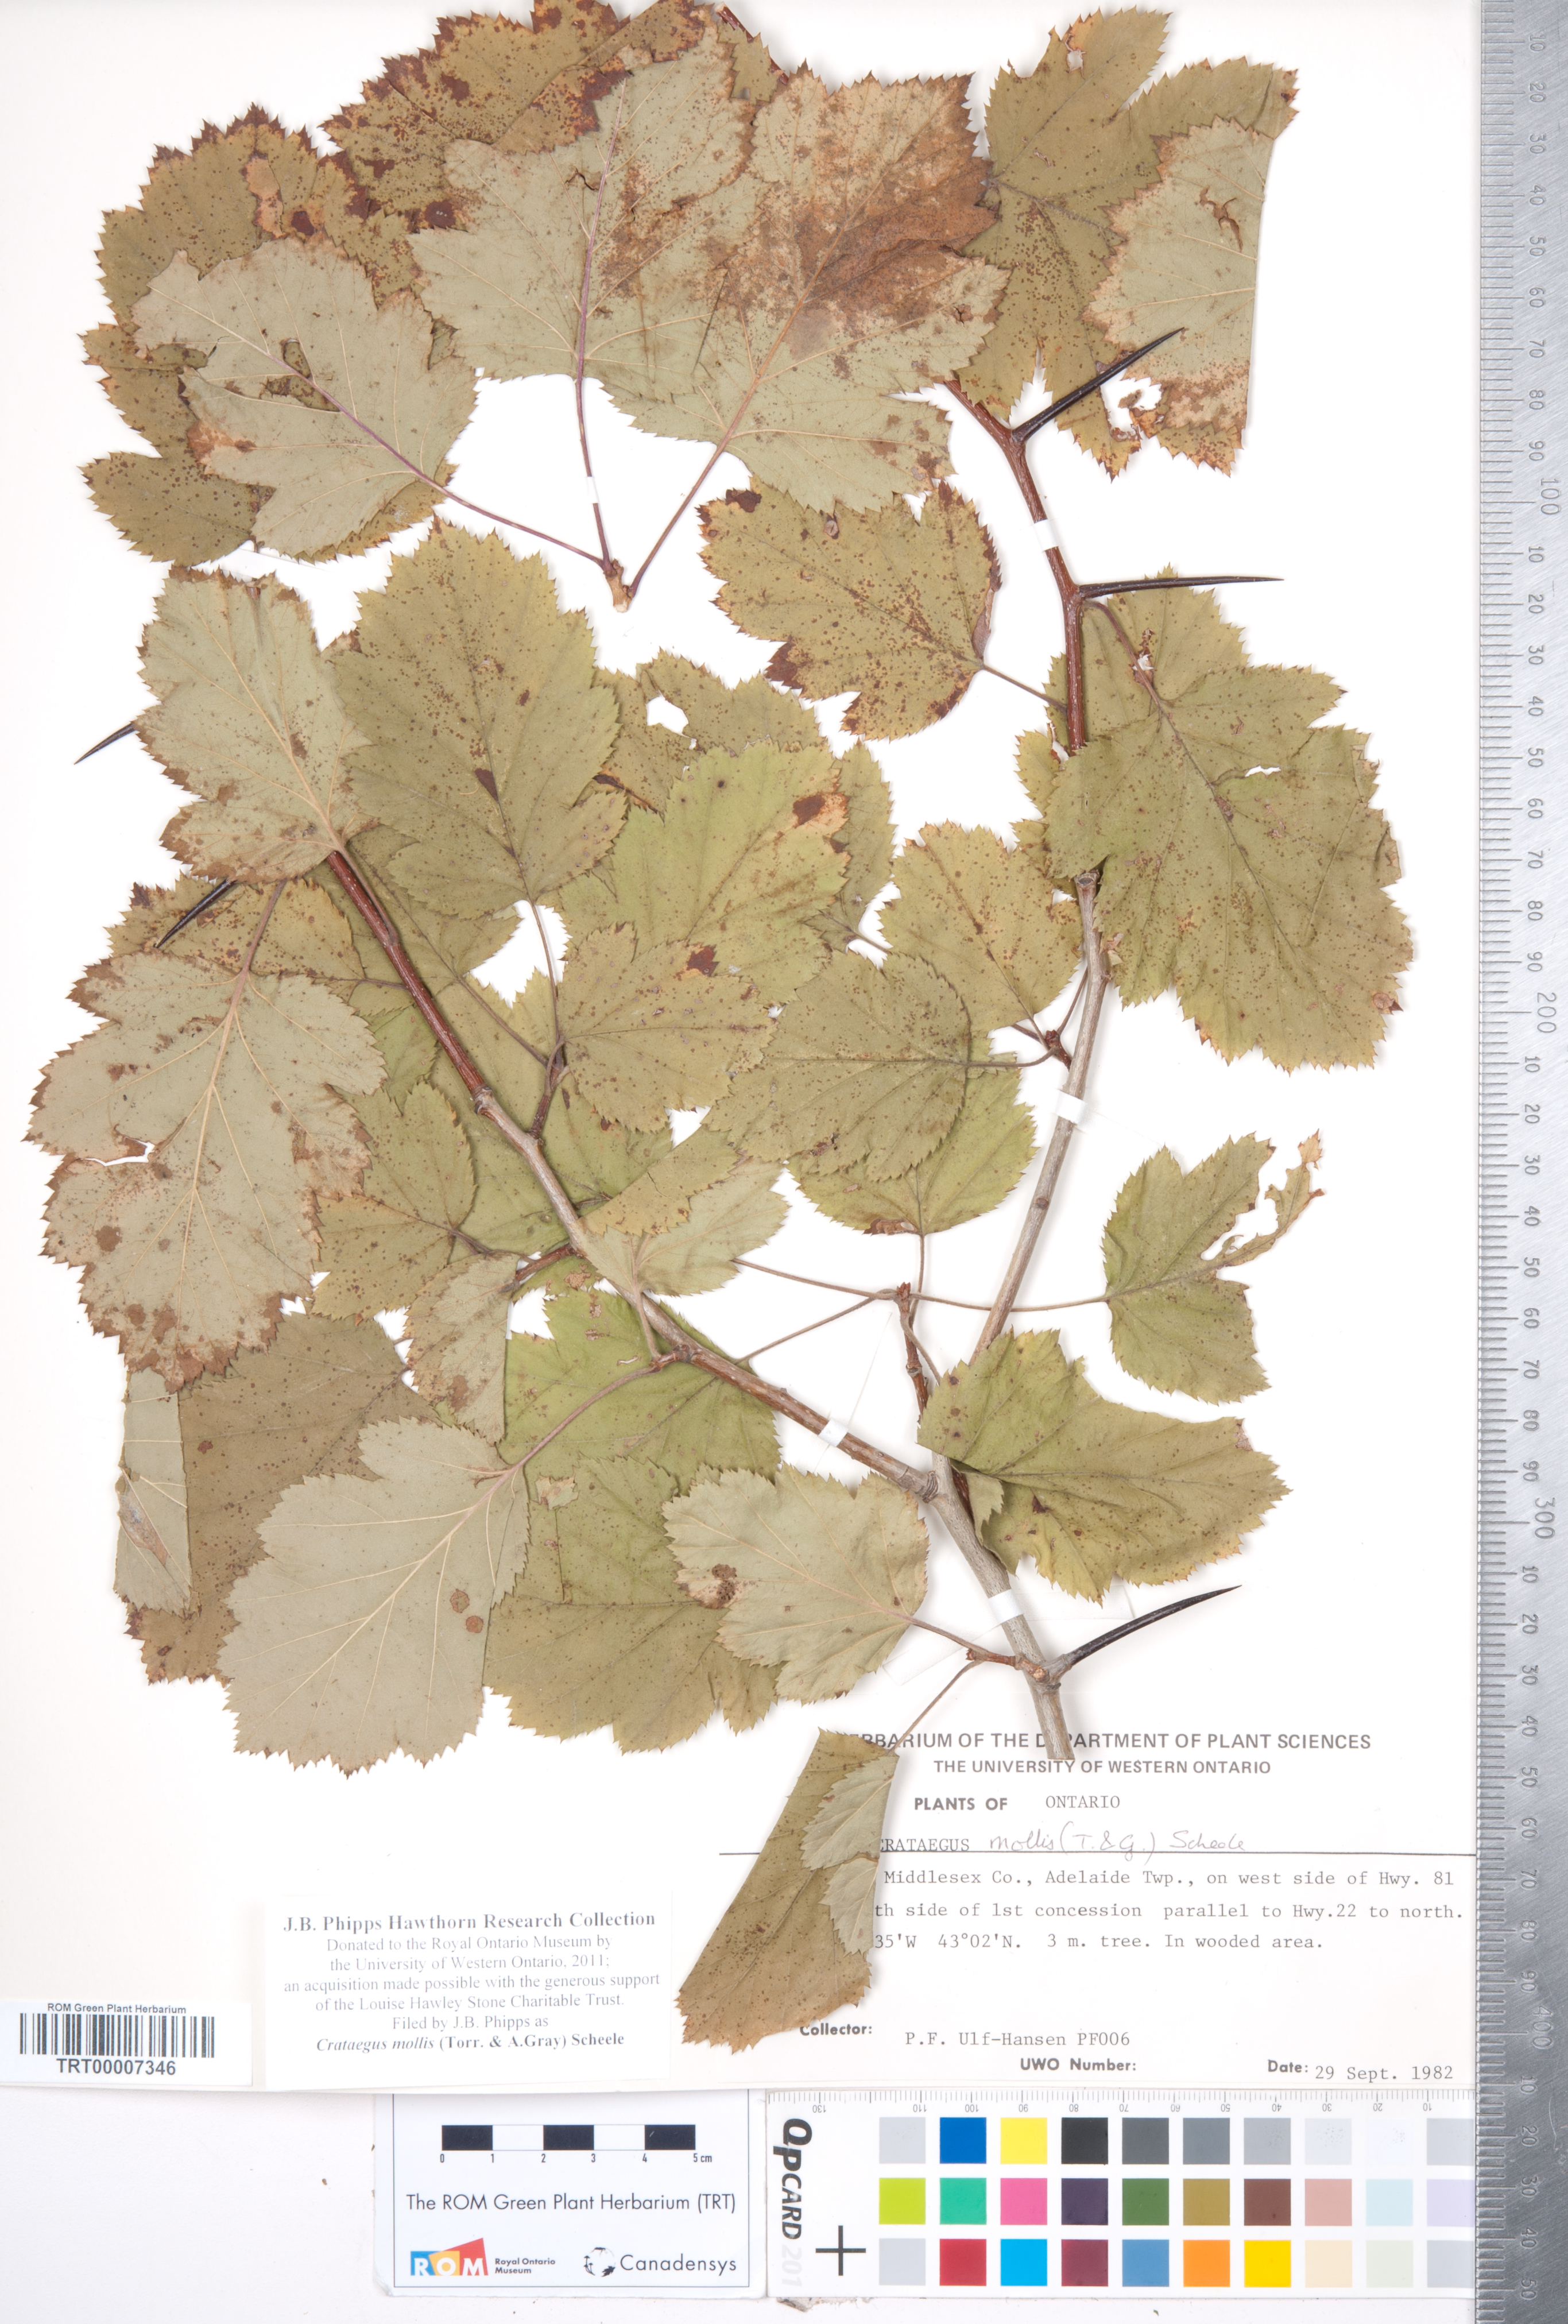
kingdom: Plantae
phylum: Tracheophyta
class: Magnoliopsida
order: Rosales
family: Rosaceae
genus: Crataegus
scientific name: Crataegus mollis
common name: Downy hawthorn
